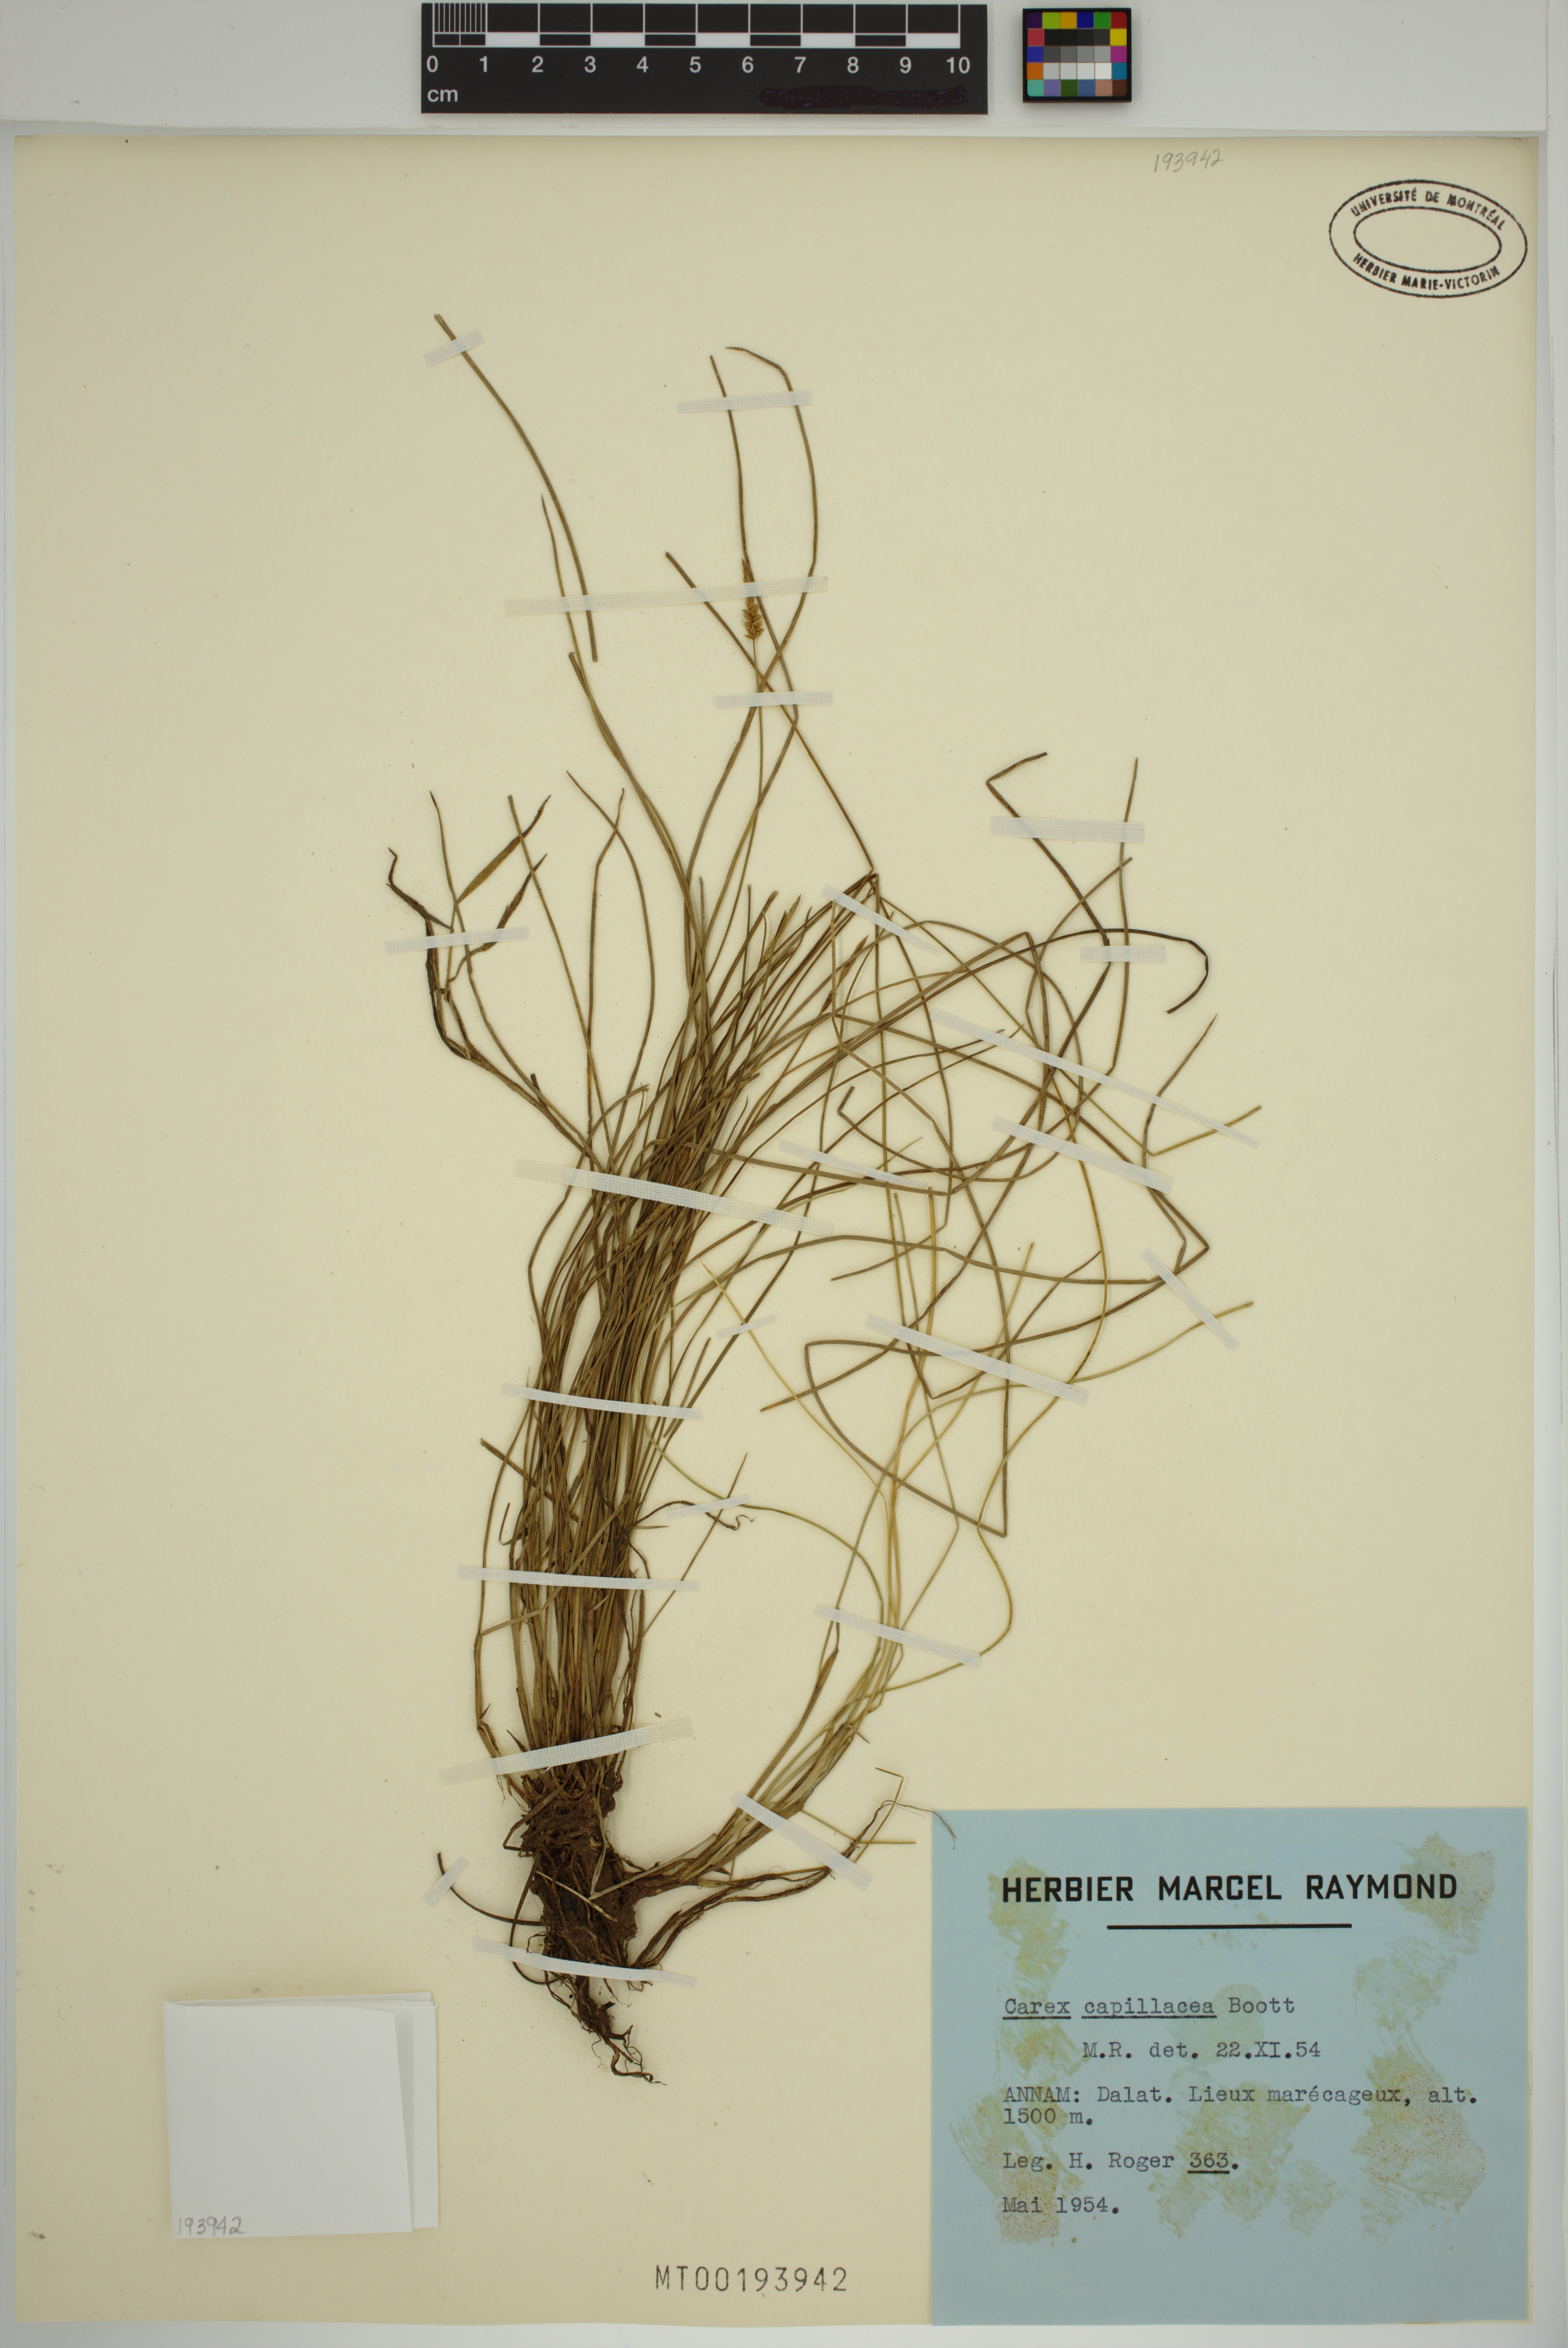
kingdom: Plantae
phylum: Tracheophyta
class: Liliopsida
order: Poales
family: Cyperaceae
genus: Carex
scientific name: Carex capillacea
